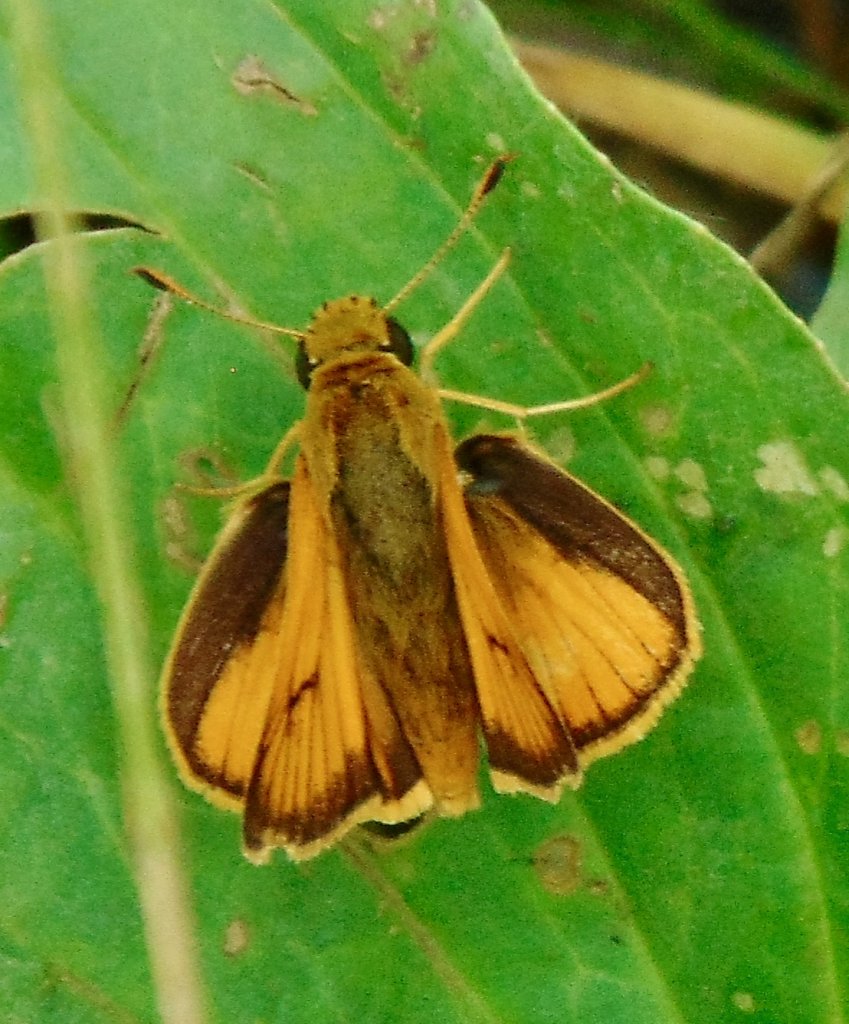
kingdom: Animalia
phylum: Arthropoda
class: Insecta
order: Lepidoptera
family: Hesperiidae
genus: Atrytone
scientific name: Atrytone delaware
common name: Delaware Skipper
